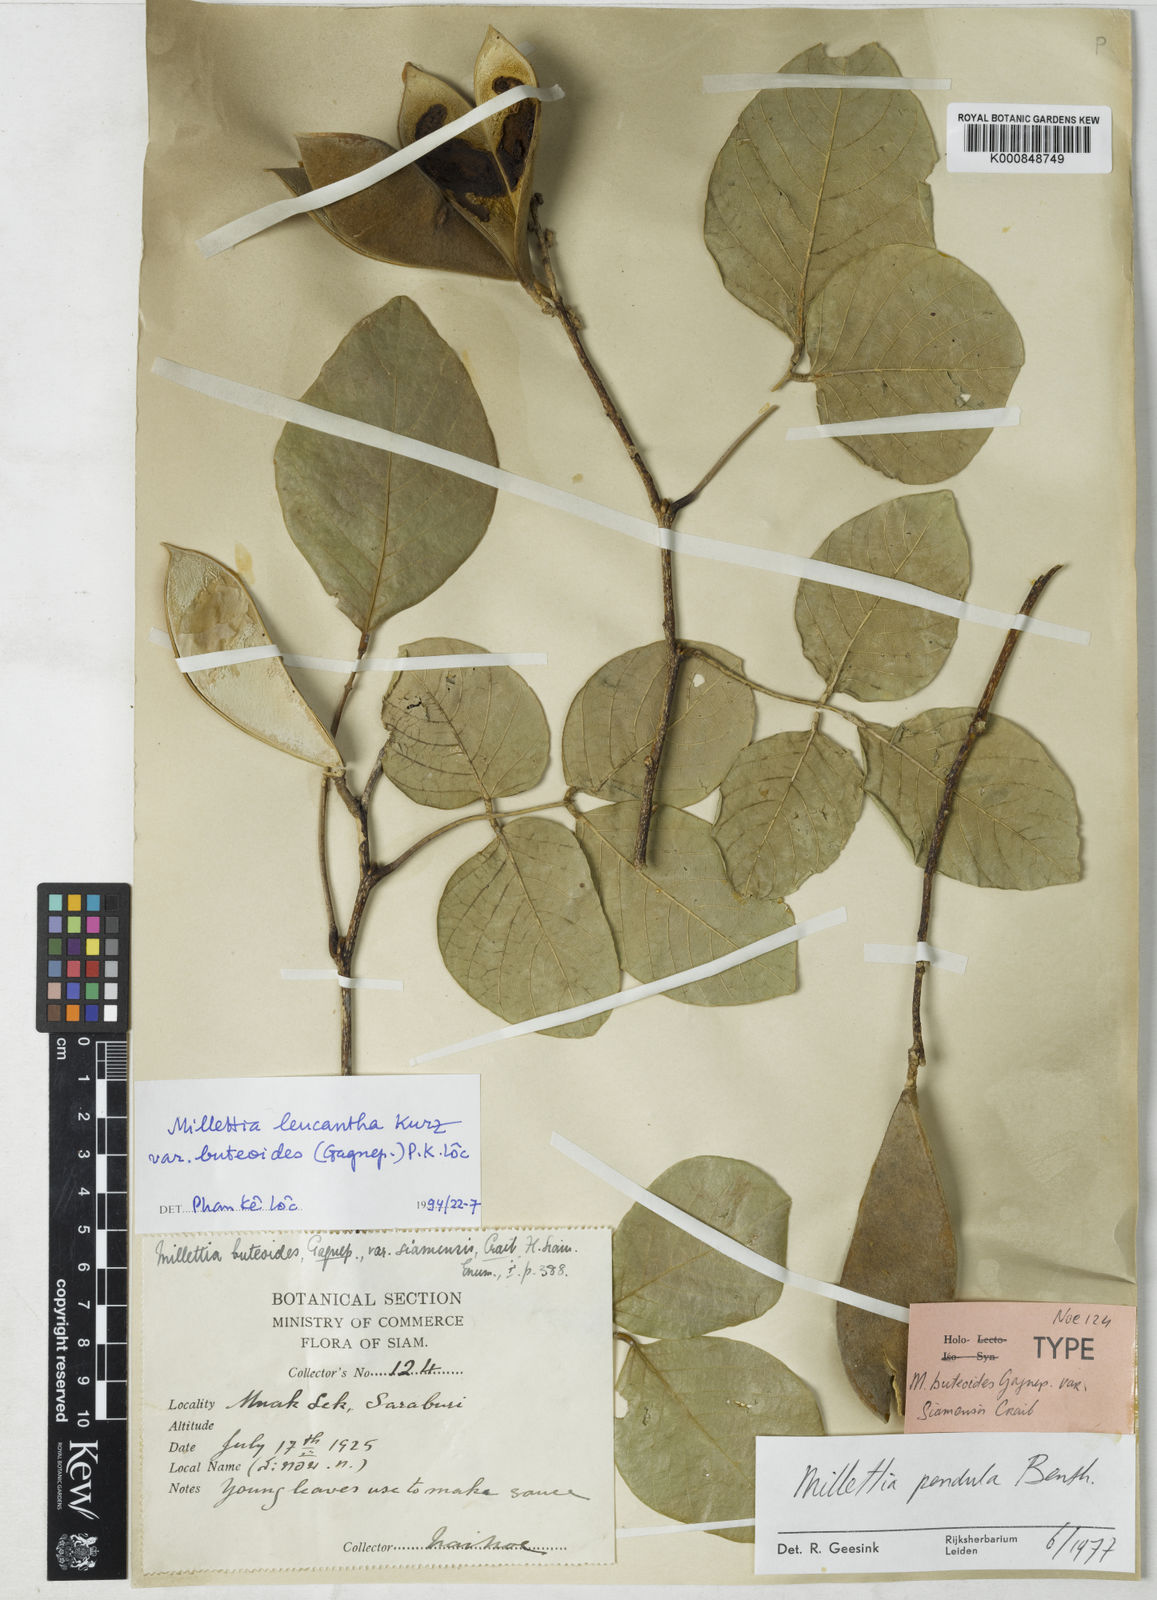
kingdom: Plantae
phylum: Tracheophyta
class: Magnoliopsida
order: Fabales
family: Fabaceae
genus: Imbralyx
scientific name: Imbralyx leucanthus
